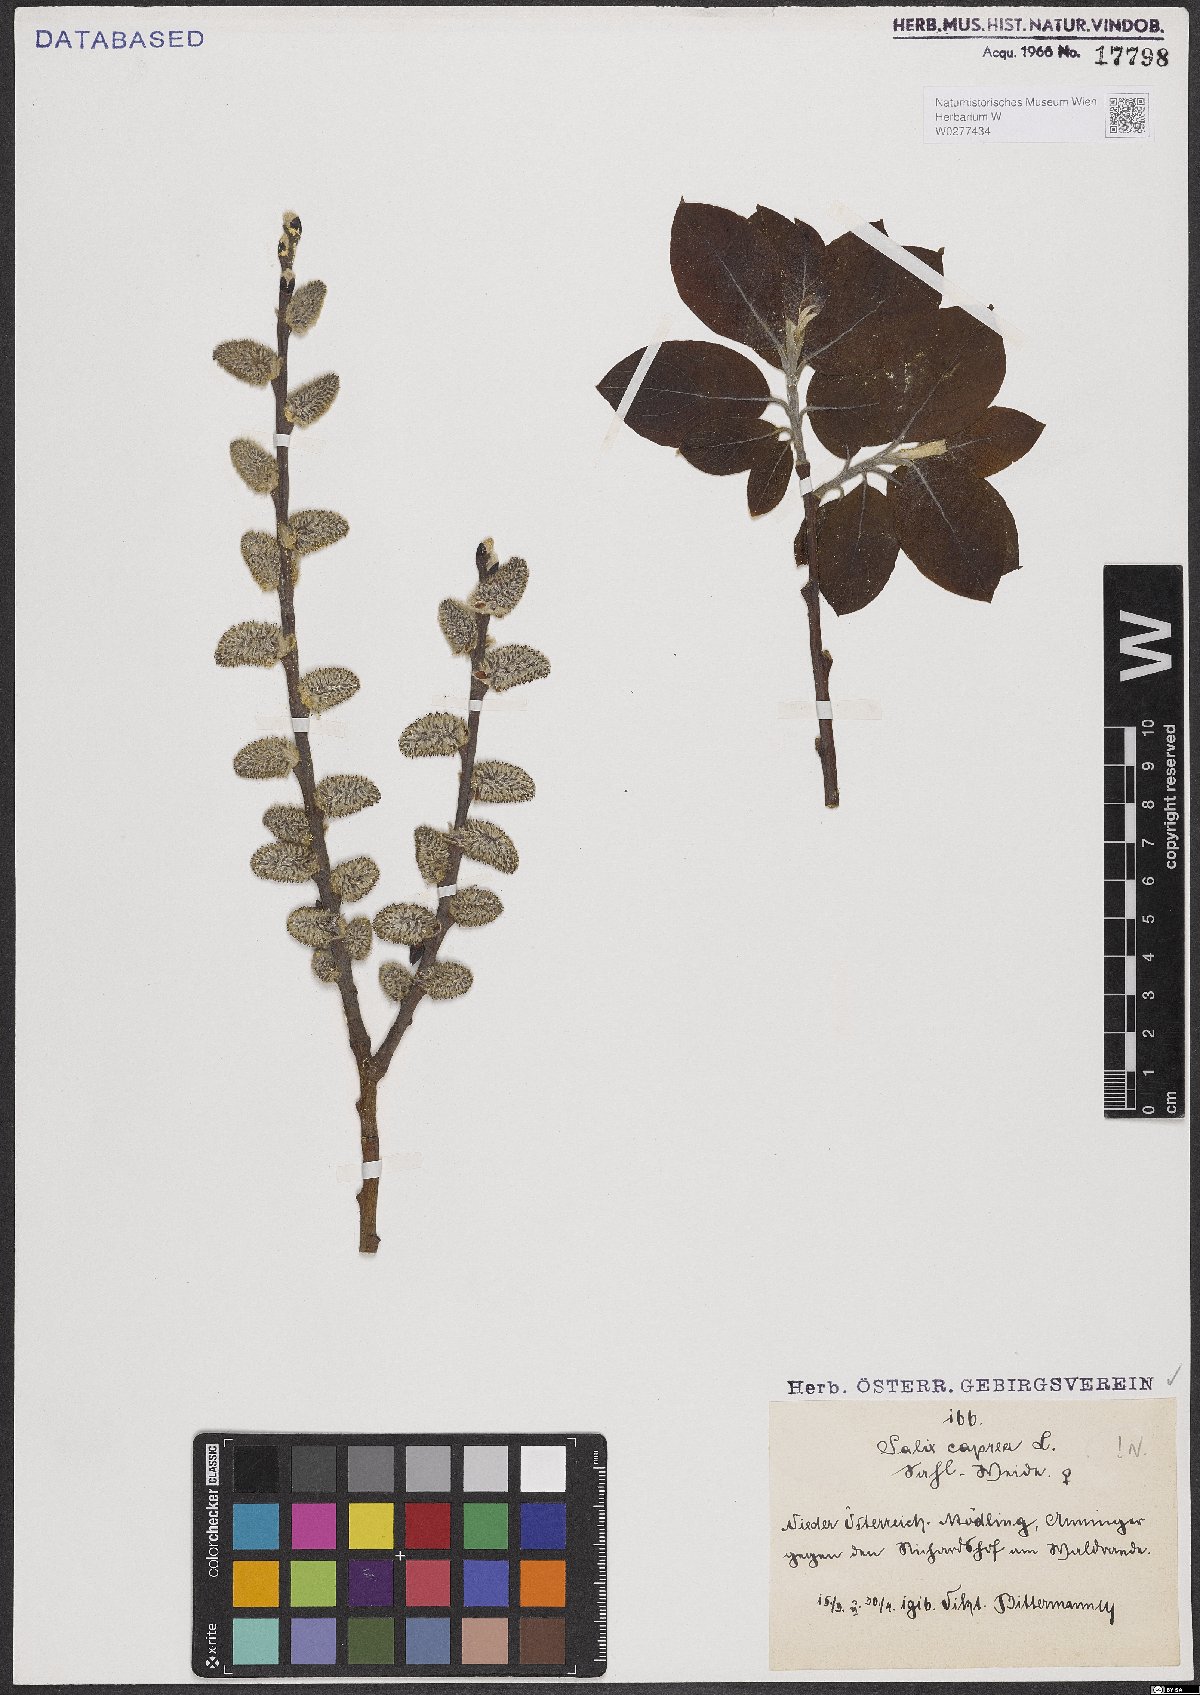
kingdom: Plantae
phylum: Tracheophyta
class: Magnoliopsida
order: Malpighiales
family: Salicaceae
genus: Salix
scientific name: Salix caprea
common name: Goat willow
